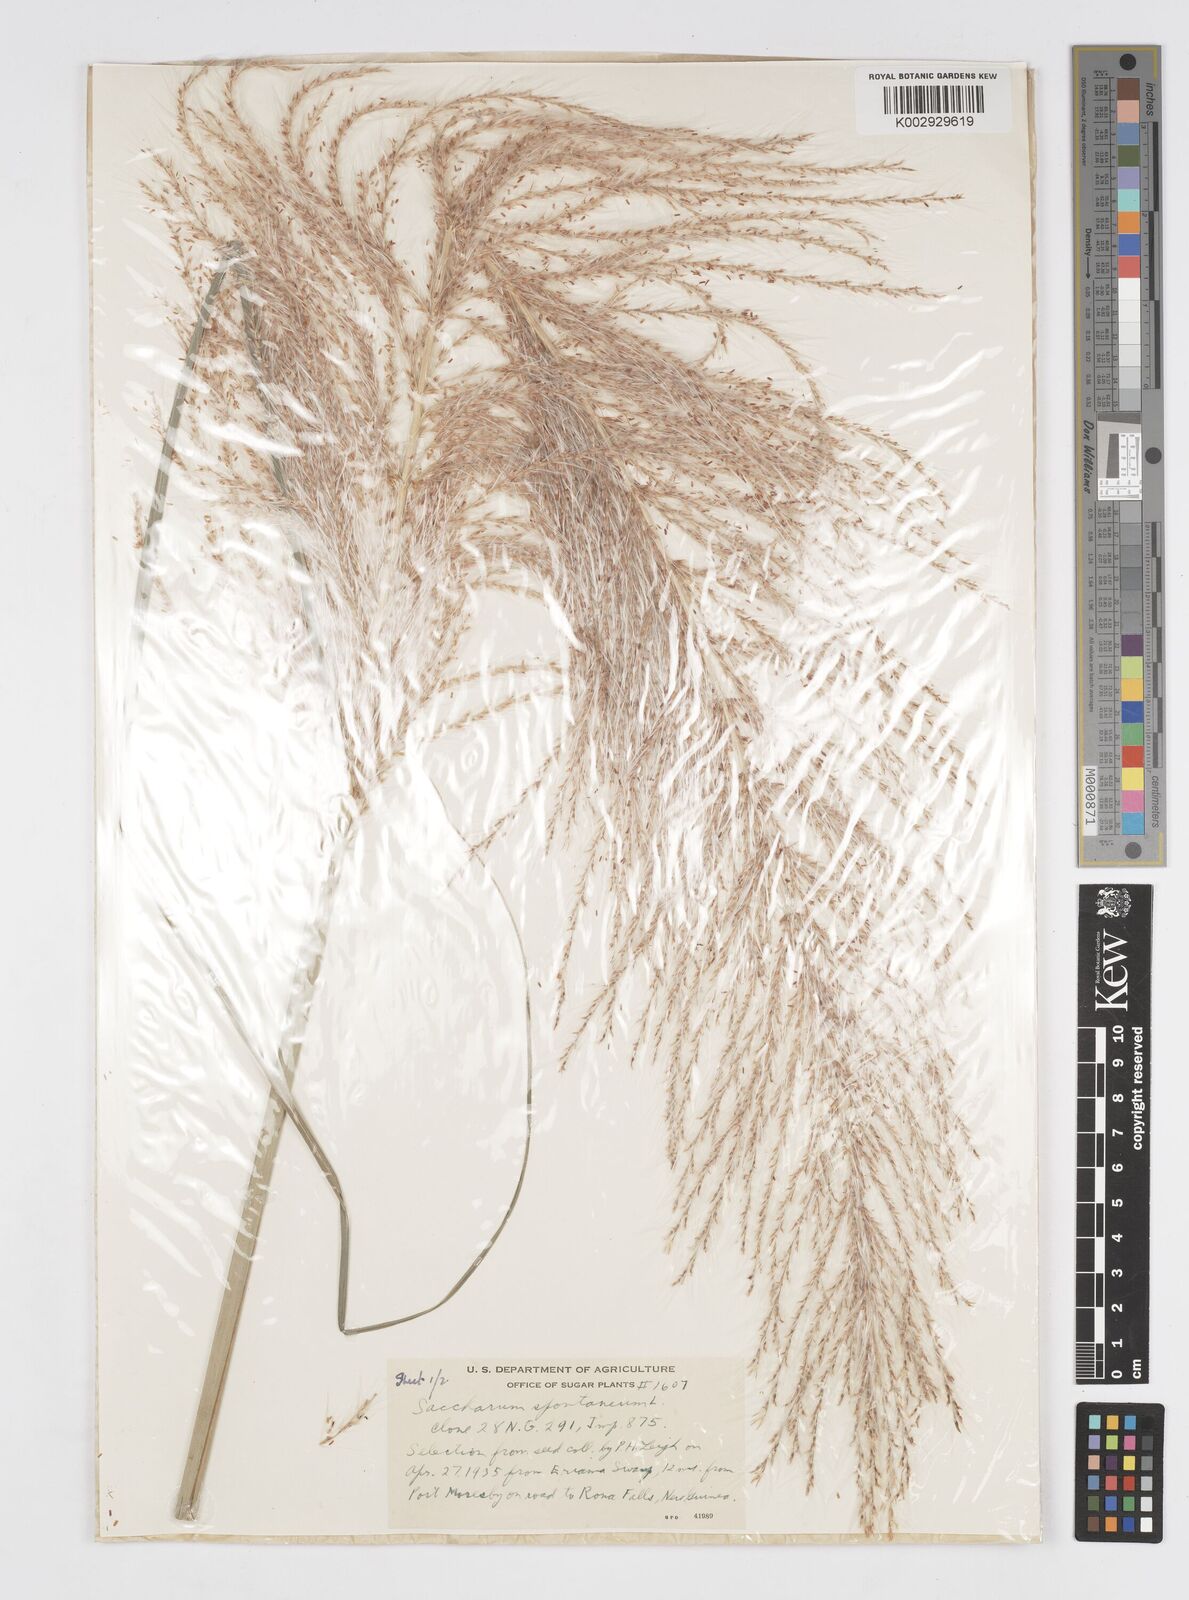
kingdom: Plantae
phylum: Tracheophyta
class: Liliopsida
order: Poales
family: Poaceae
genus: Saccharum
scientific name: Saccharum spontaneum
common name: Wild sugarcane
